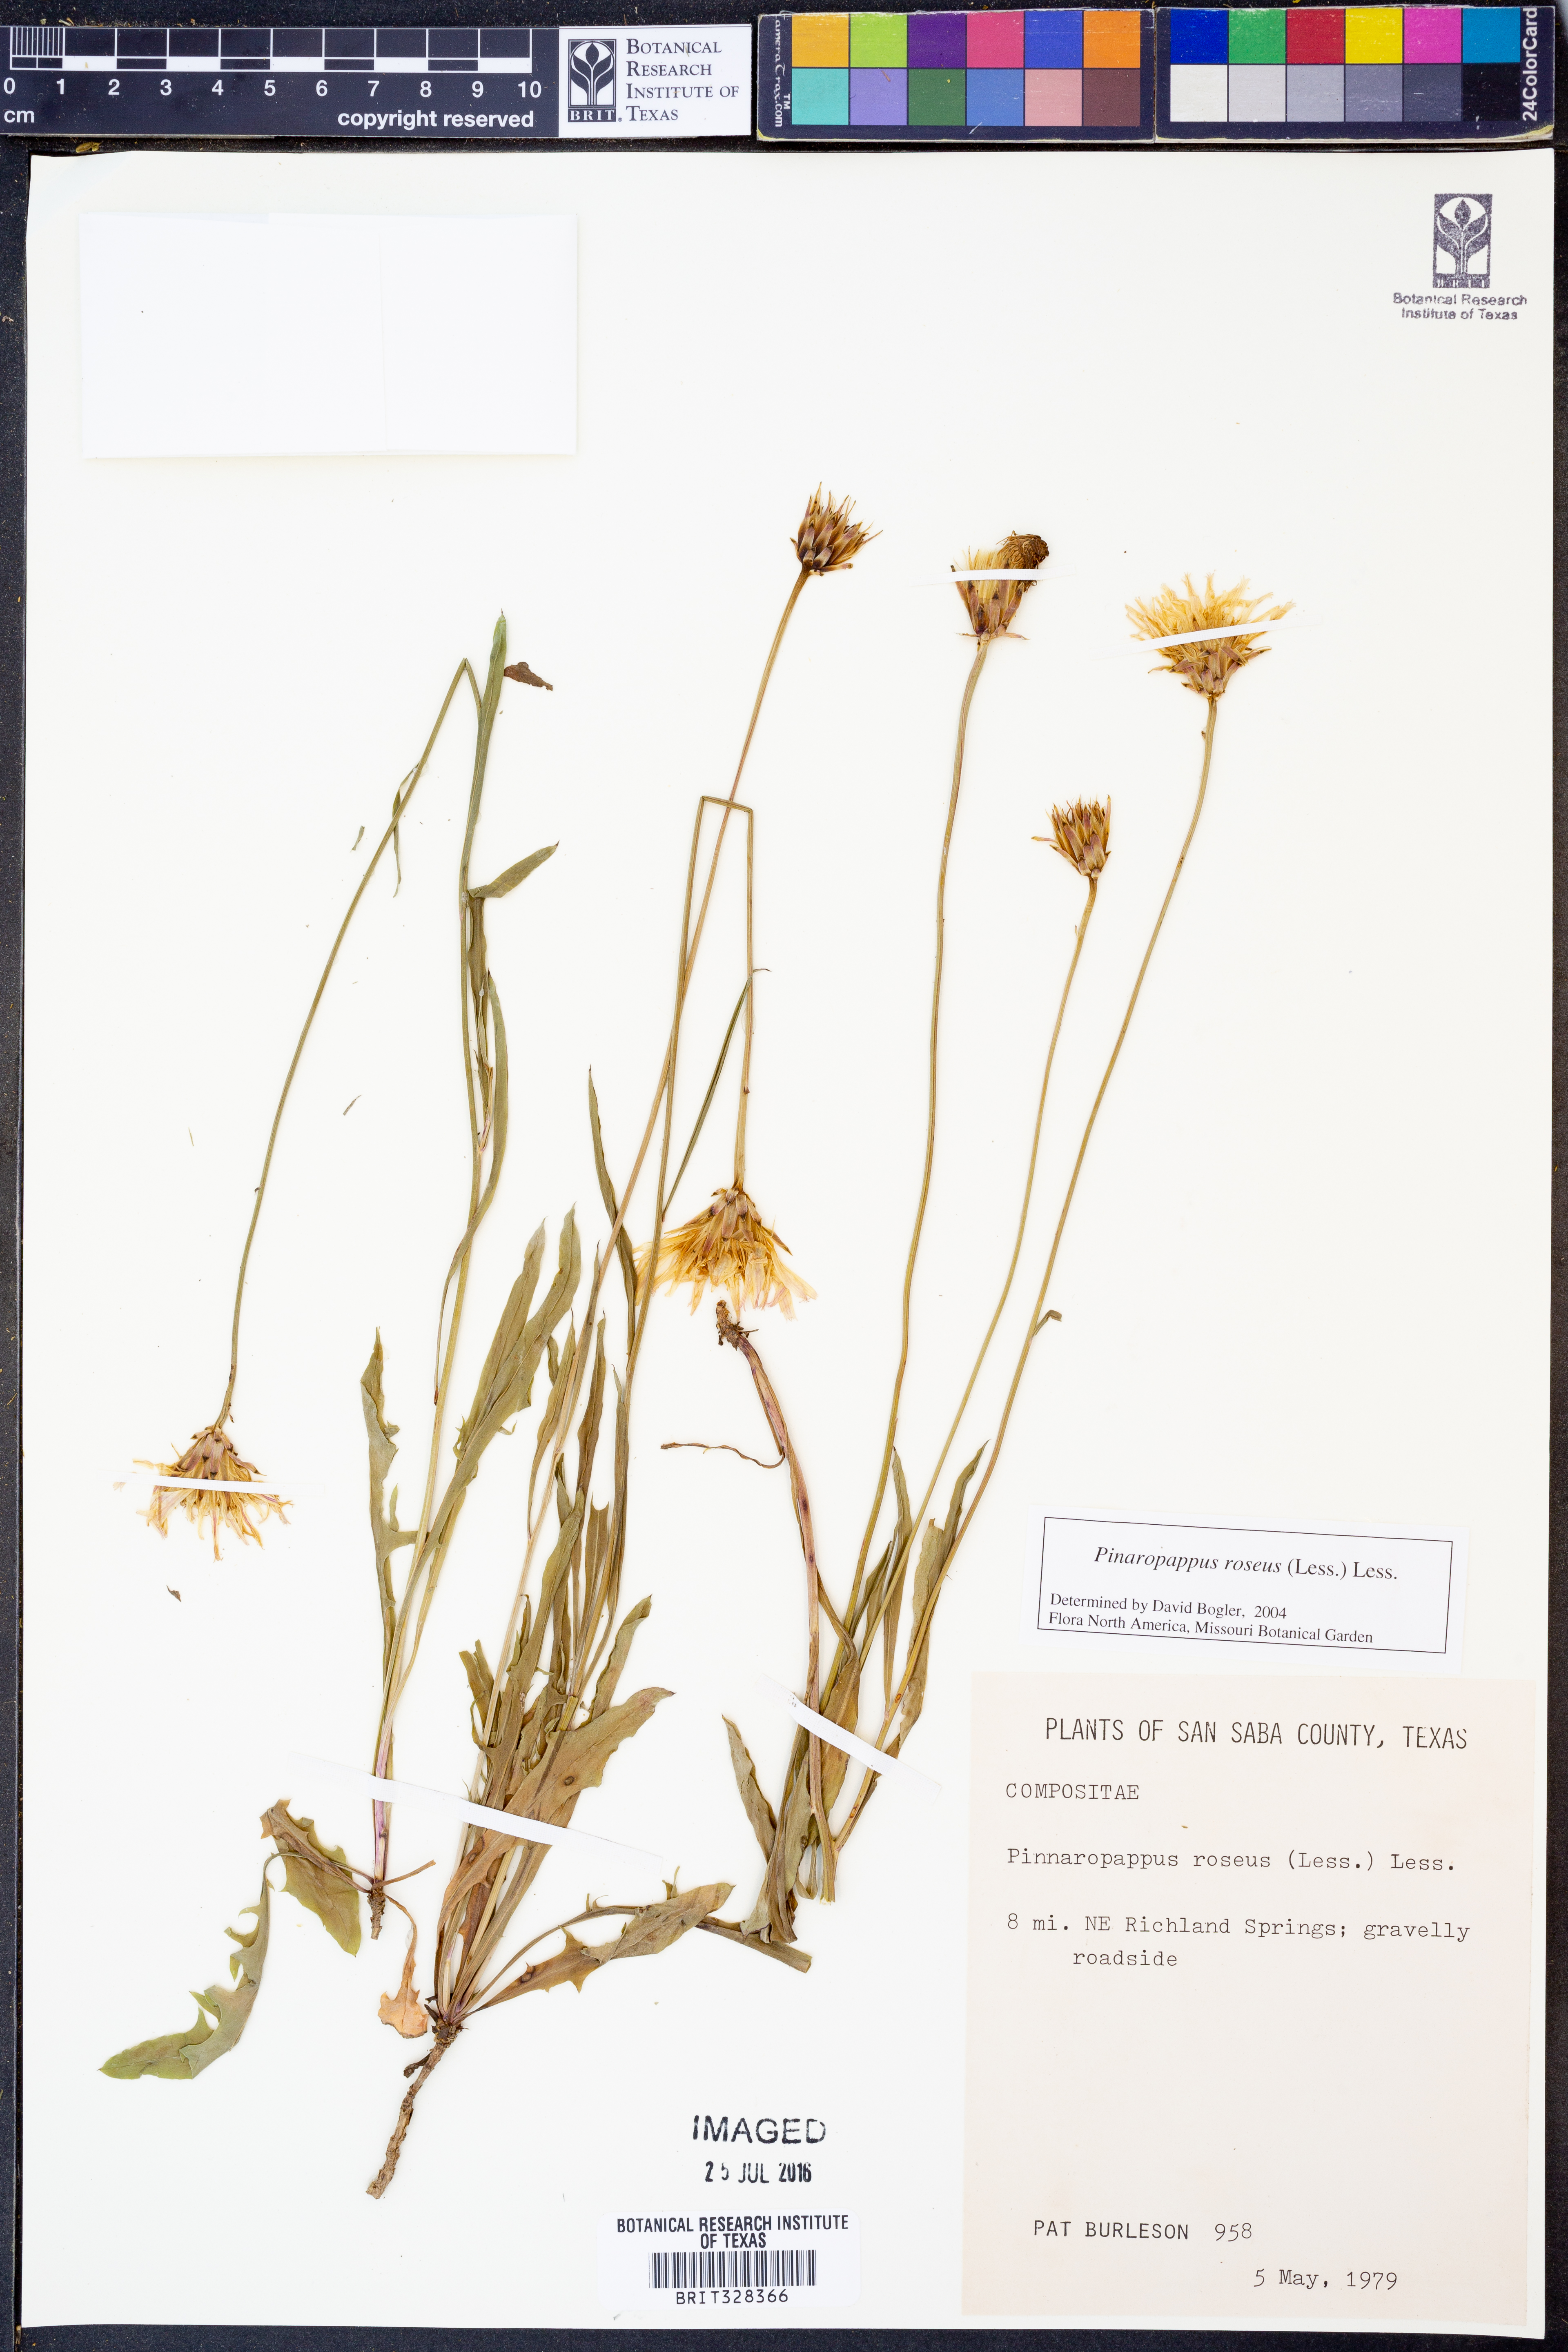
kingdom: Plantae
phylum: Tracheophyta
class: Magnoliopsida
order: Asterales
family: Asteraceae
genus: Pinaropappus
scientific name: Pinaropappus roseus
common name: Rock-lettuce
